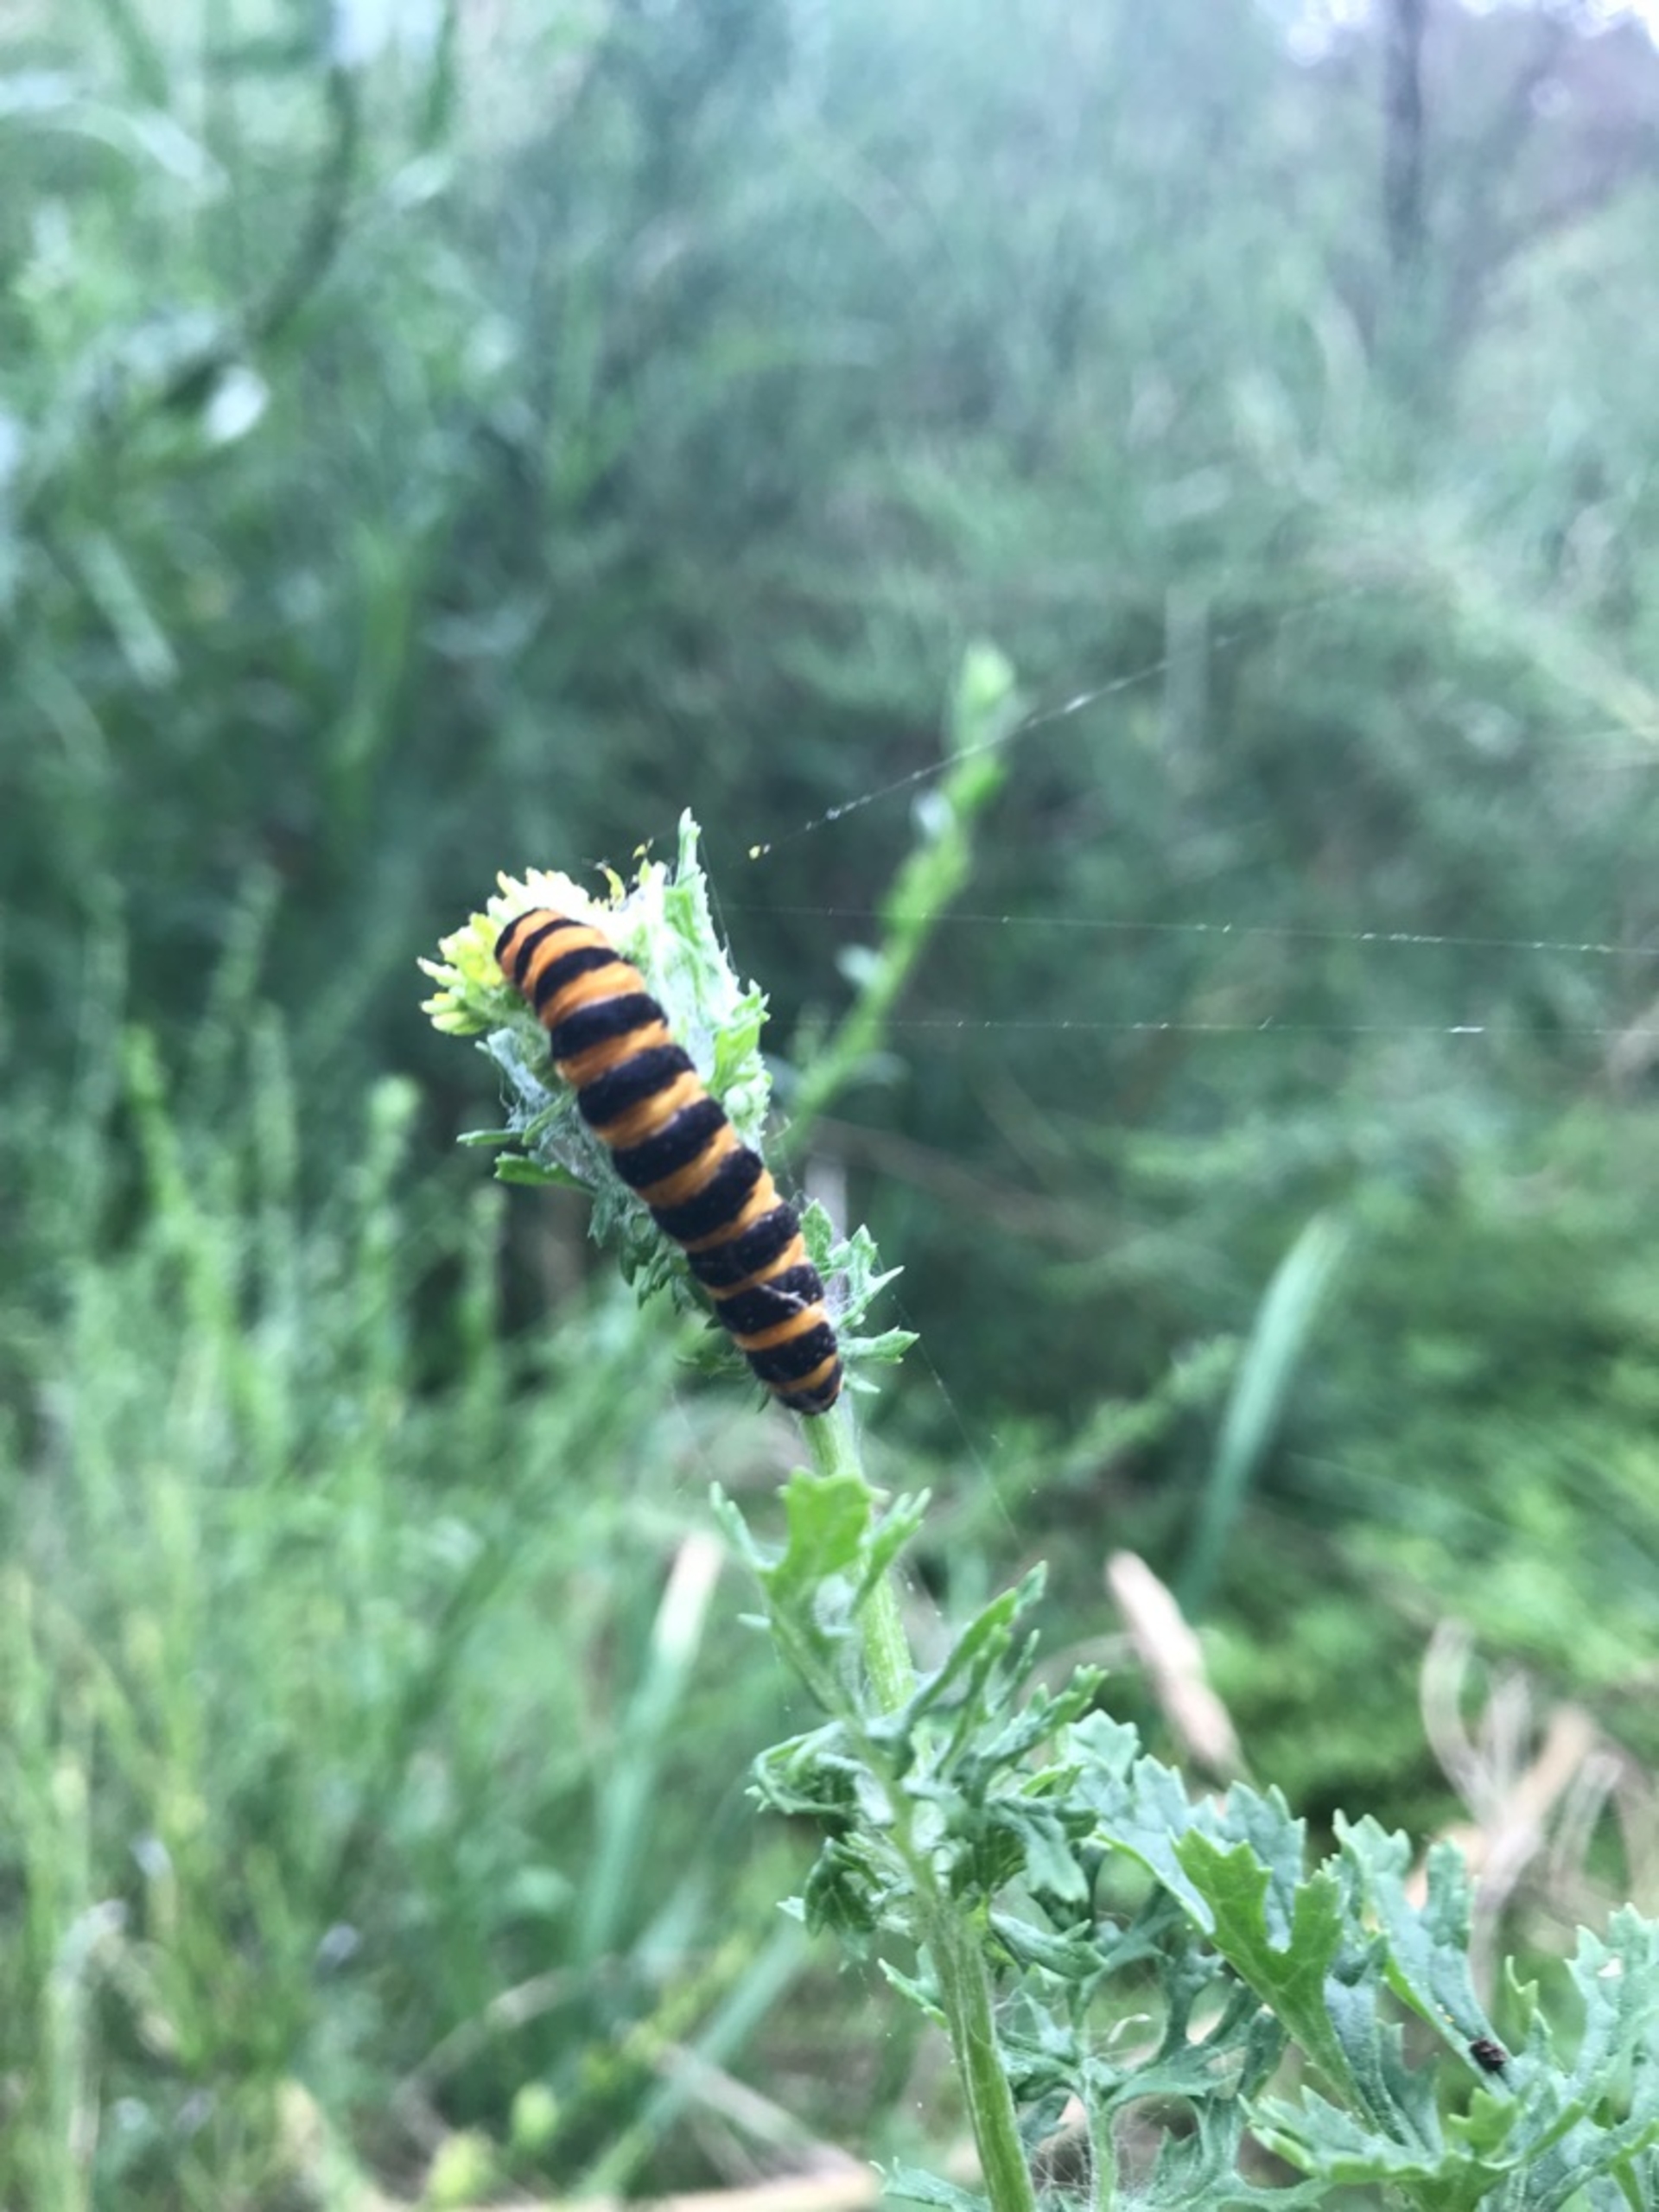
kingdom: Animalia
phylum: Arthropoda
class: Insecta
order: Lepidoptera
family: Erebidae
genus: Tyria
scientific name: Tyria jacobaeae
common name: Blodplet
